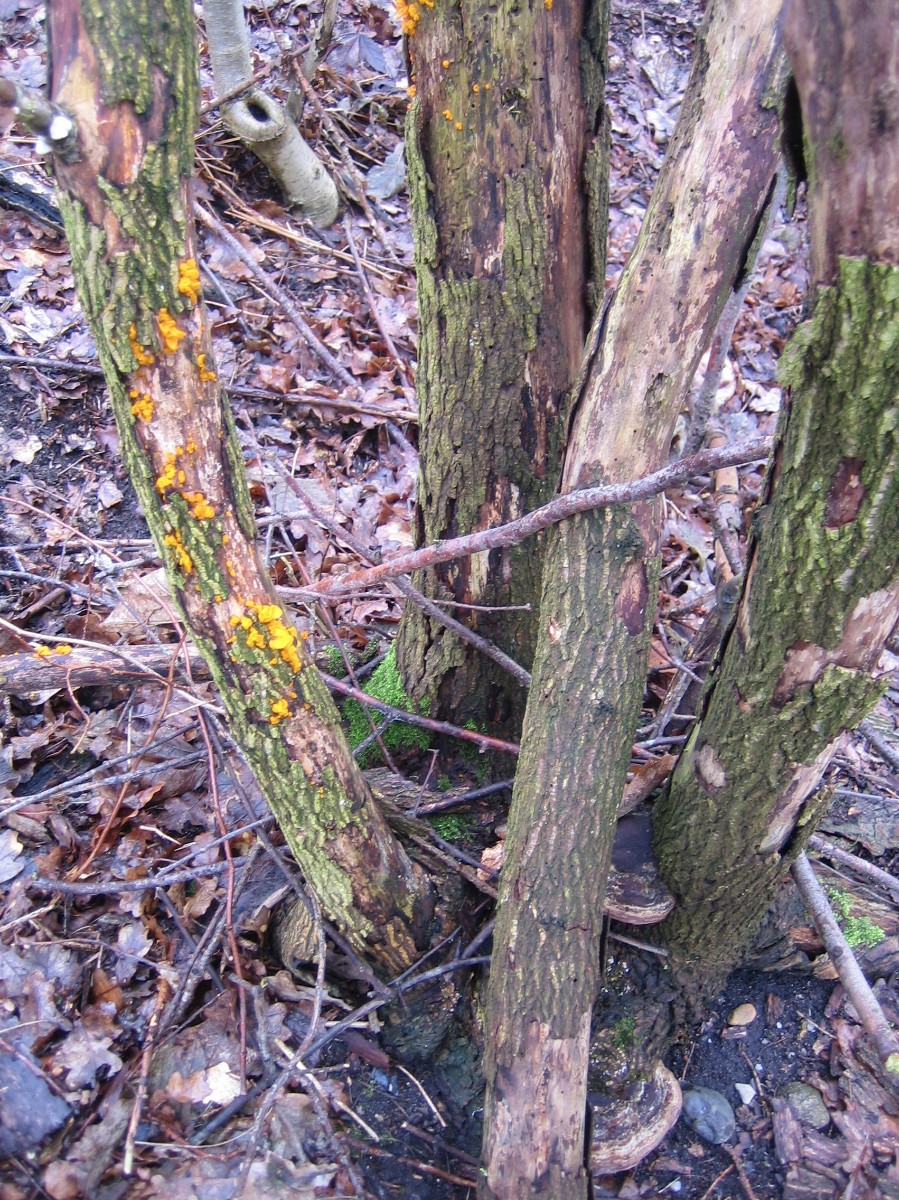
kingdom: Fungi
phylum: Basidiomycota
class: Tremellomycetes
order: Tremellales
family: Tremellaceae
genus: Tremella
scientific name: Tremella mesenterica
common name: gul bævresvamp
